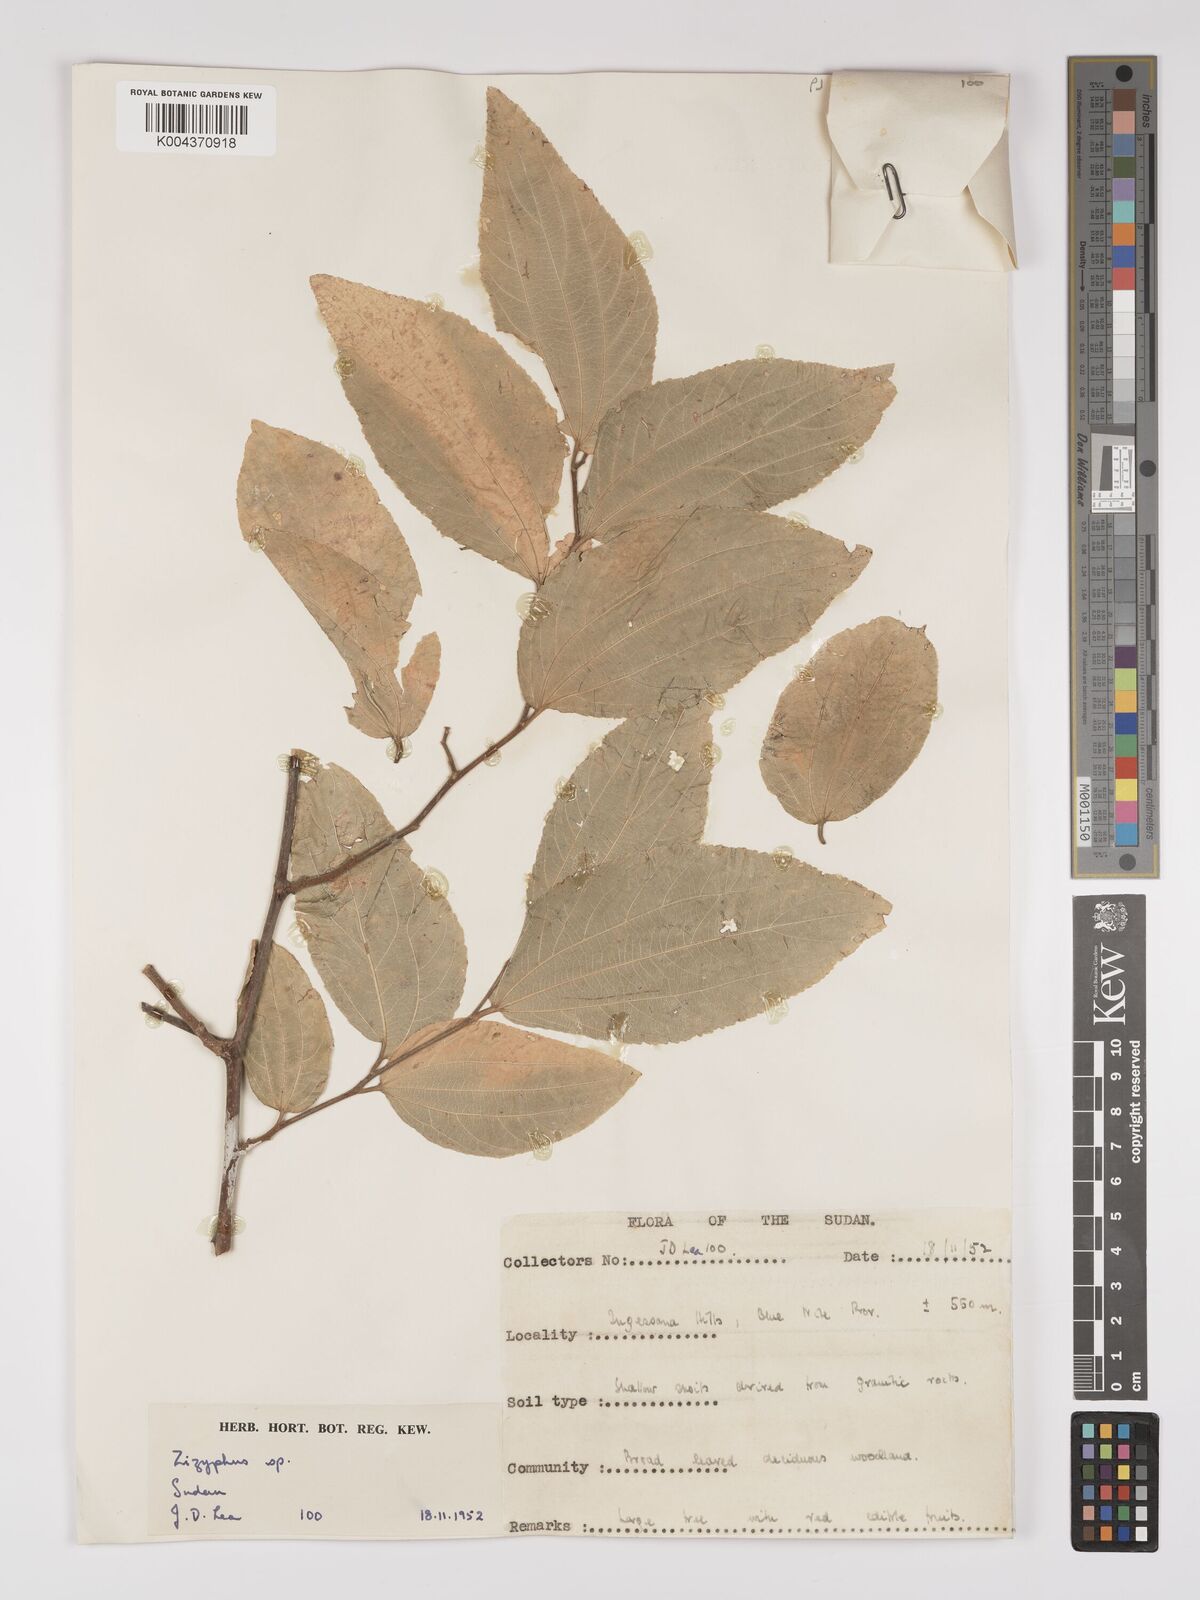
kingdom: Plantae
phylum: Tracheophyta
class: Magnoliopsida
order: Rosales
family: Rhamnaceae
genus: Ziziphus
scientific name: Ziziphus
